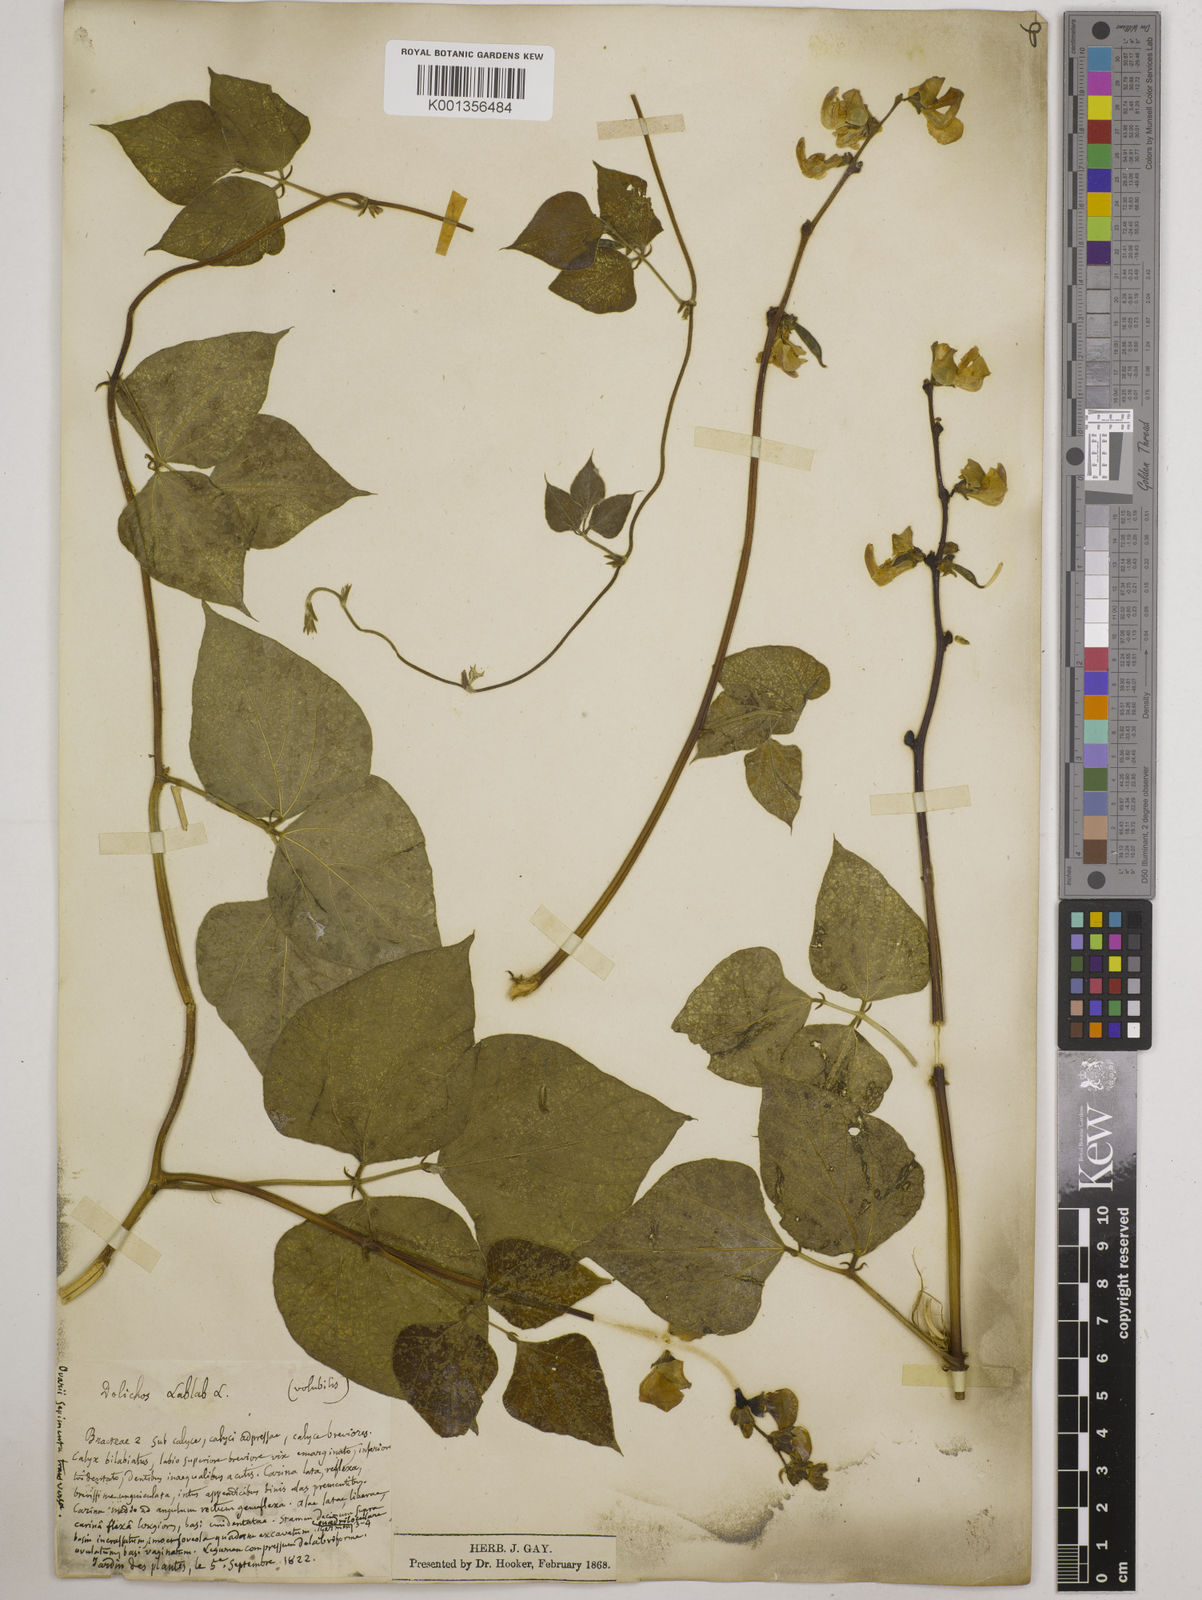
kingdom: Plantae
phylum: Tracheophyta
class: Magnoliopsida
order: Fabales
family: Fabaceae
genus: Lablab
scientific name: Lablab purpureus
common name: Lablab-bean
